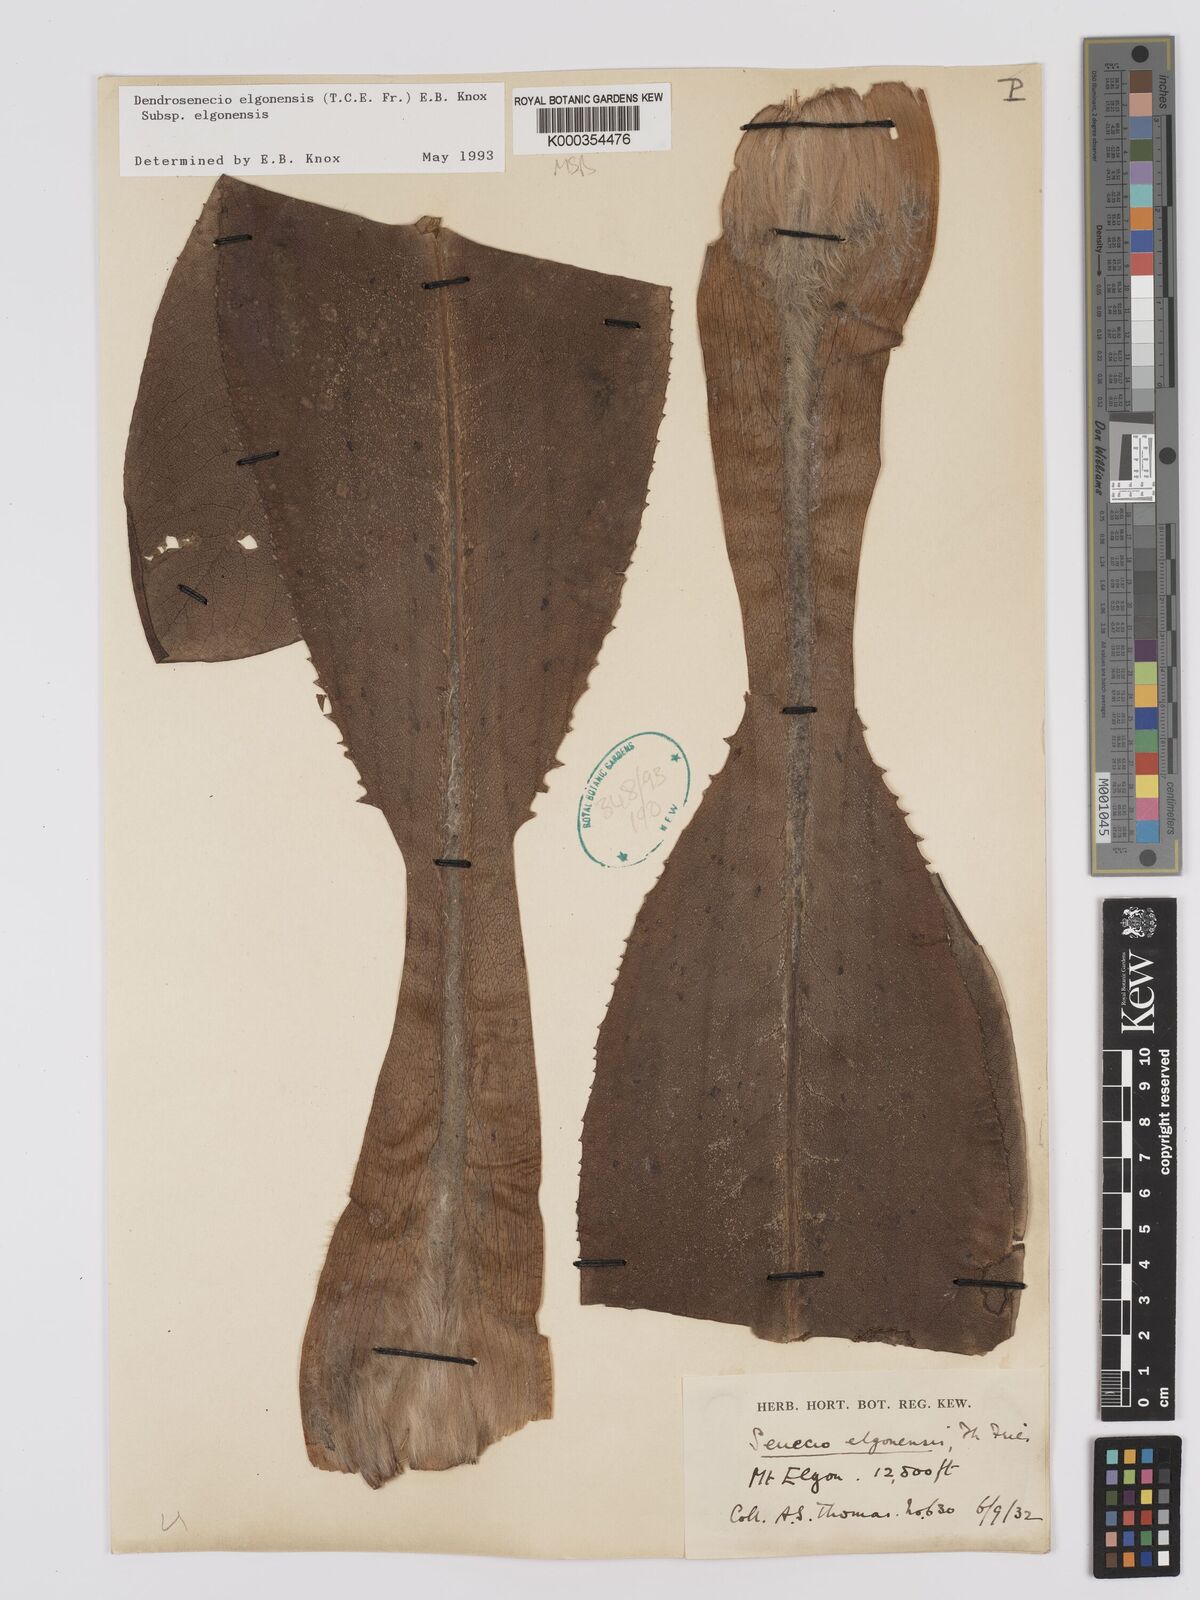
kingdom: Plantae
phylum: Tracheophyta
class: Magnoliopsida
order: Asterales
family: Asteraceae
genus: Dendrosenecio
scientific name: Dendrosenecio elgonensis
